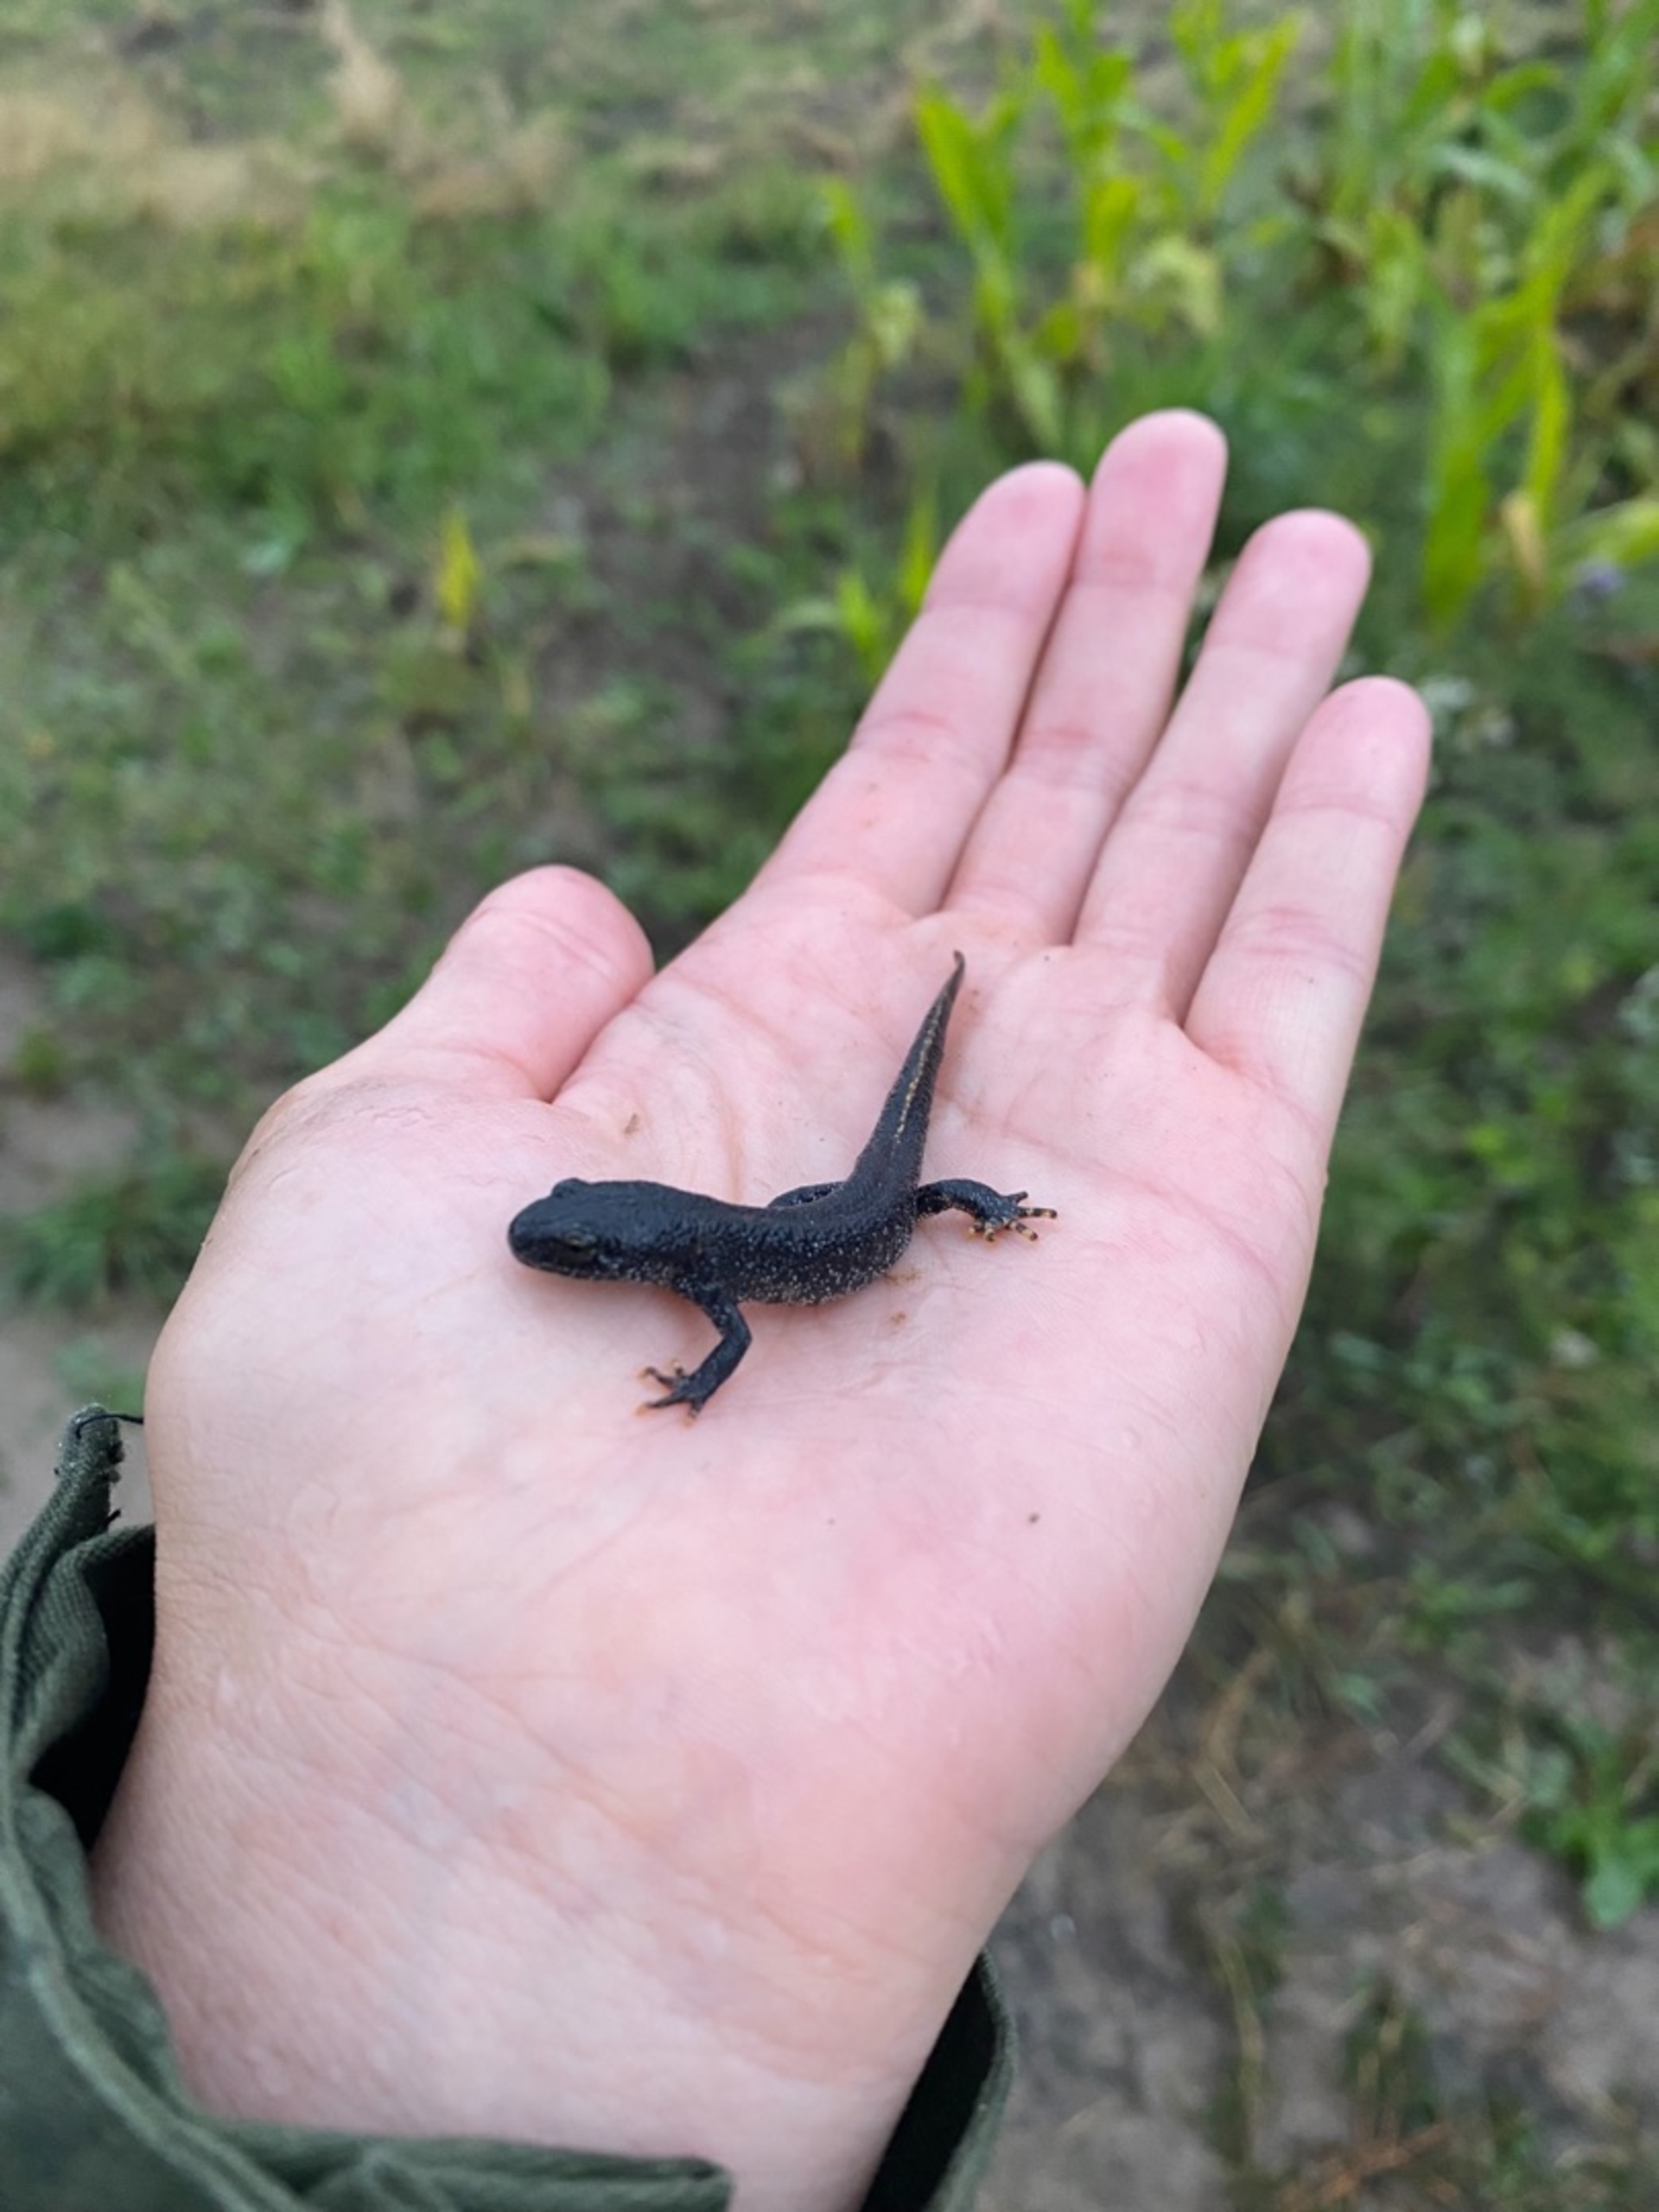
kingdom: Animalia
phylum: Chordata
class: Amphibia
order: Caudata
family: Salamandridae
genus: Triturus
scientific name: Triturus cristatus
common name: Stor vandsalamander
